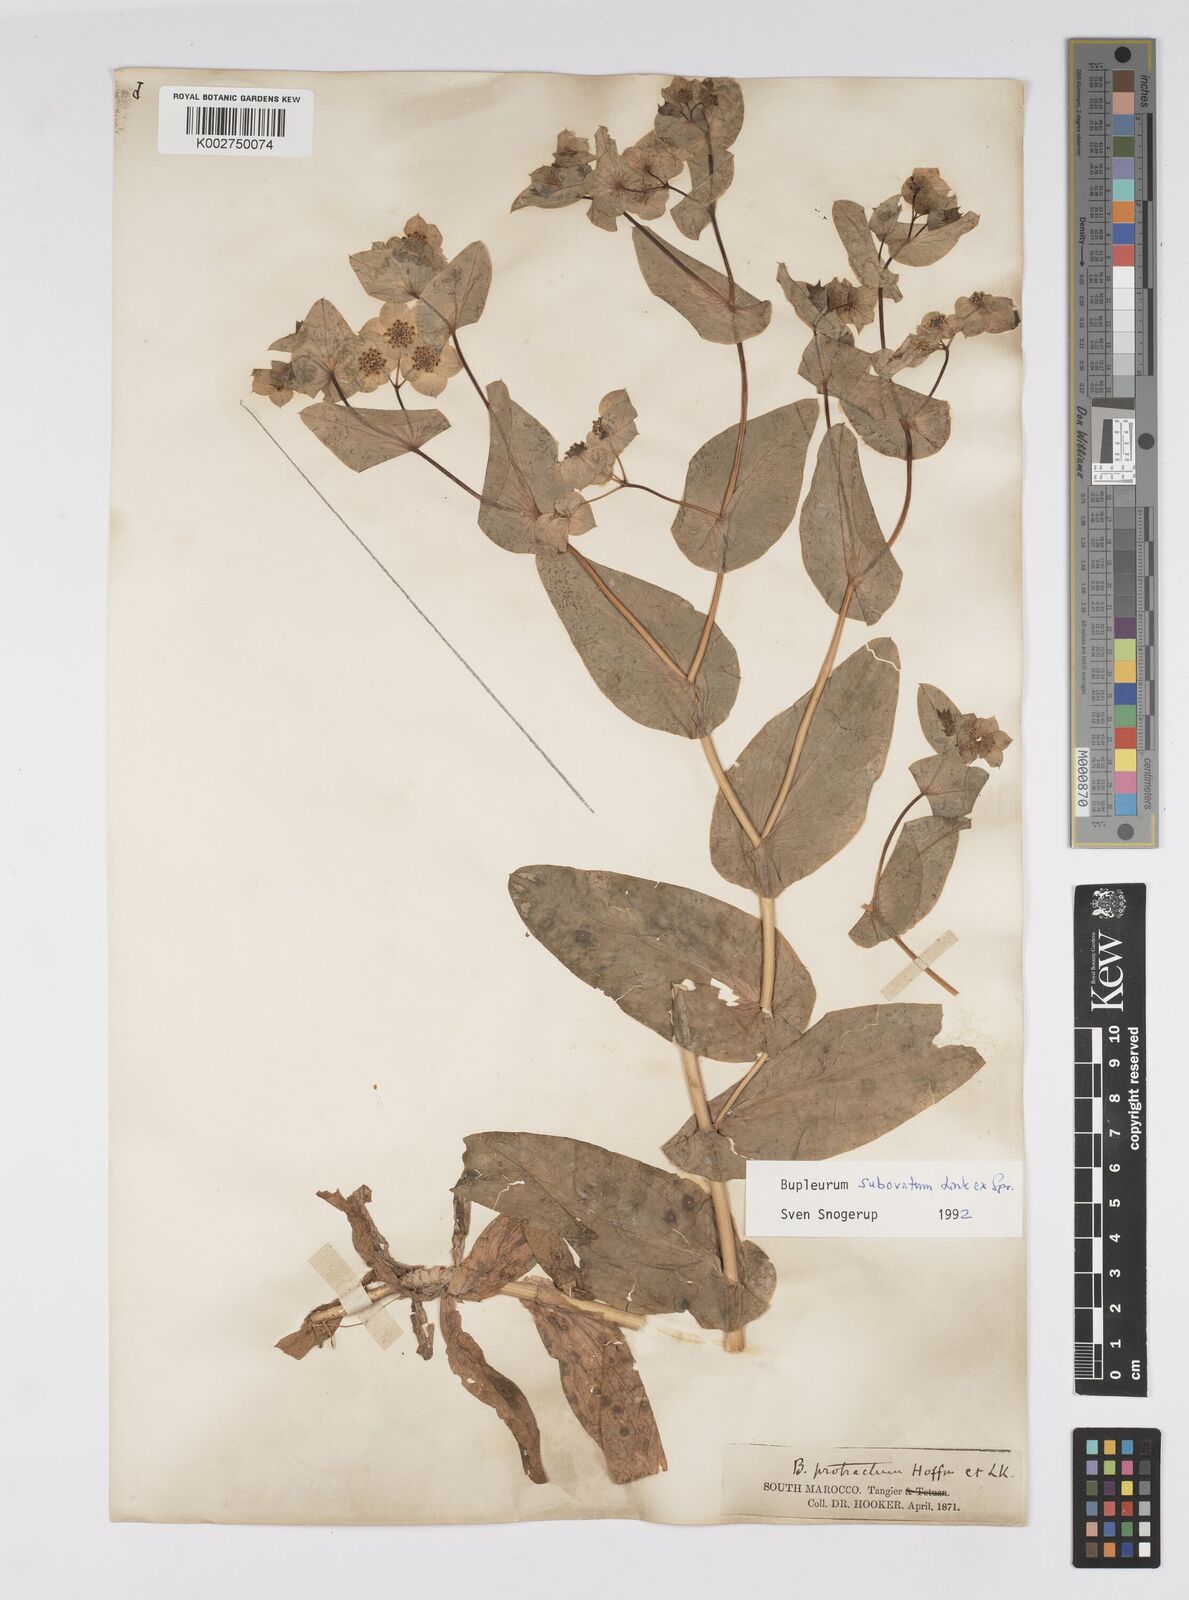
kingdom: Plantae
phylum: Tracheophyta
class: Magnoliopsida
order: Apiales
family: Apiaceae
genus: Bupleurum
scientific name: Bupleurum subovatum
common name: False thorow-wax
